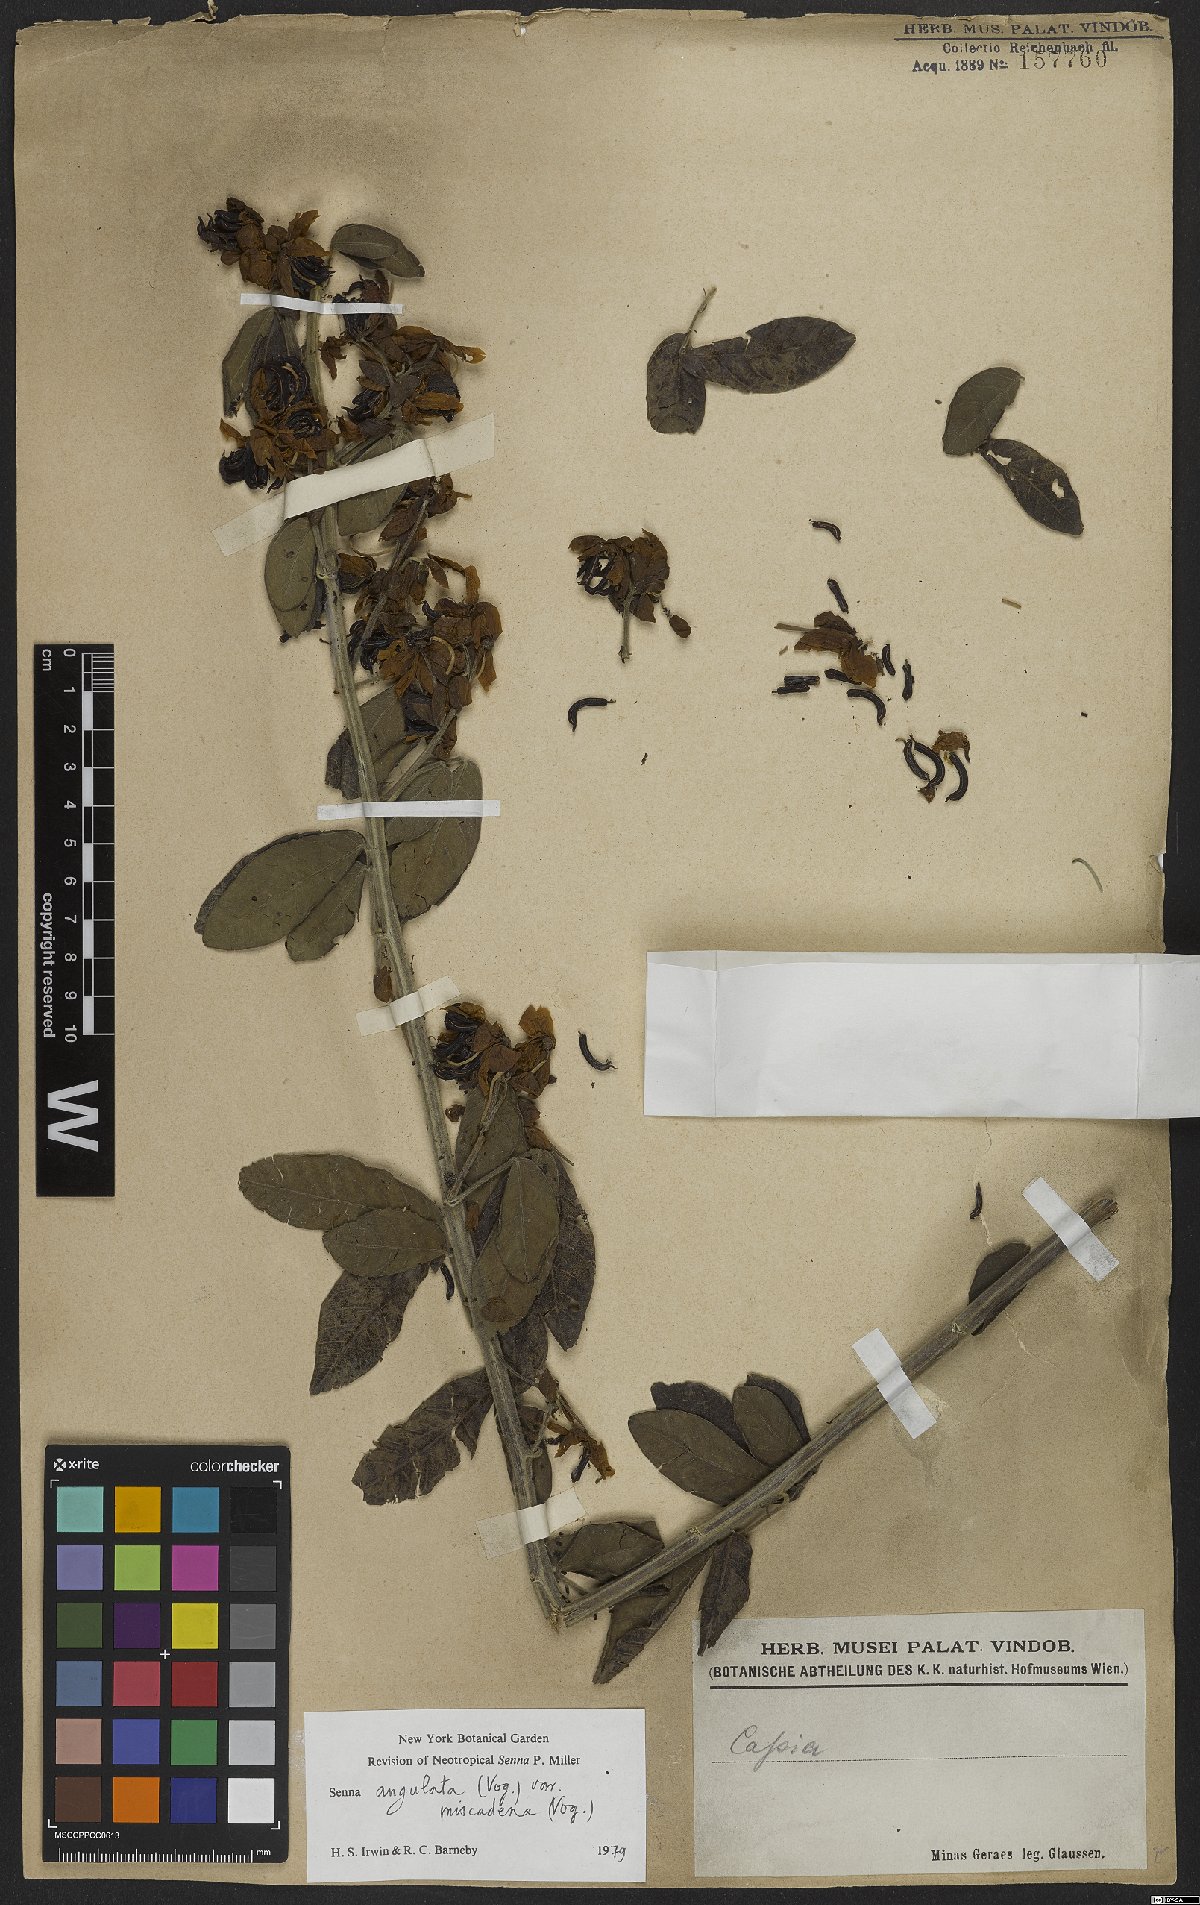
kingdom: Plantae
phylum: Tracheophyta
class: Magnoliopsida
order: Fabales
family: Fabaceae
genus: Senna
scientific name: Senna angulata
